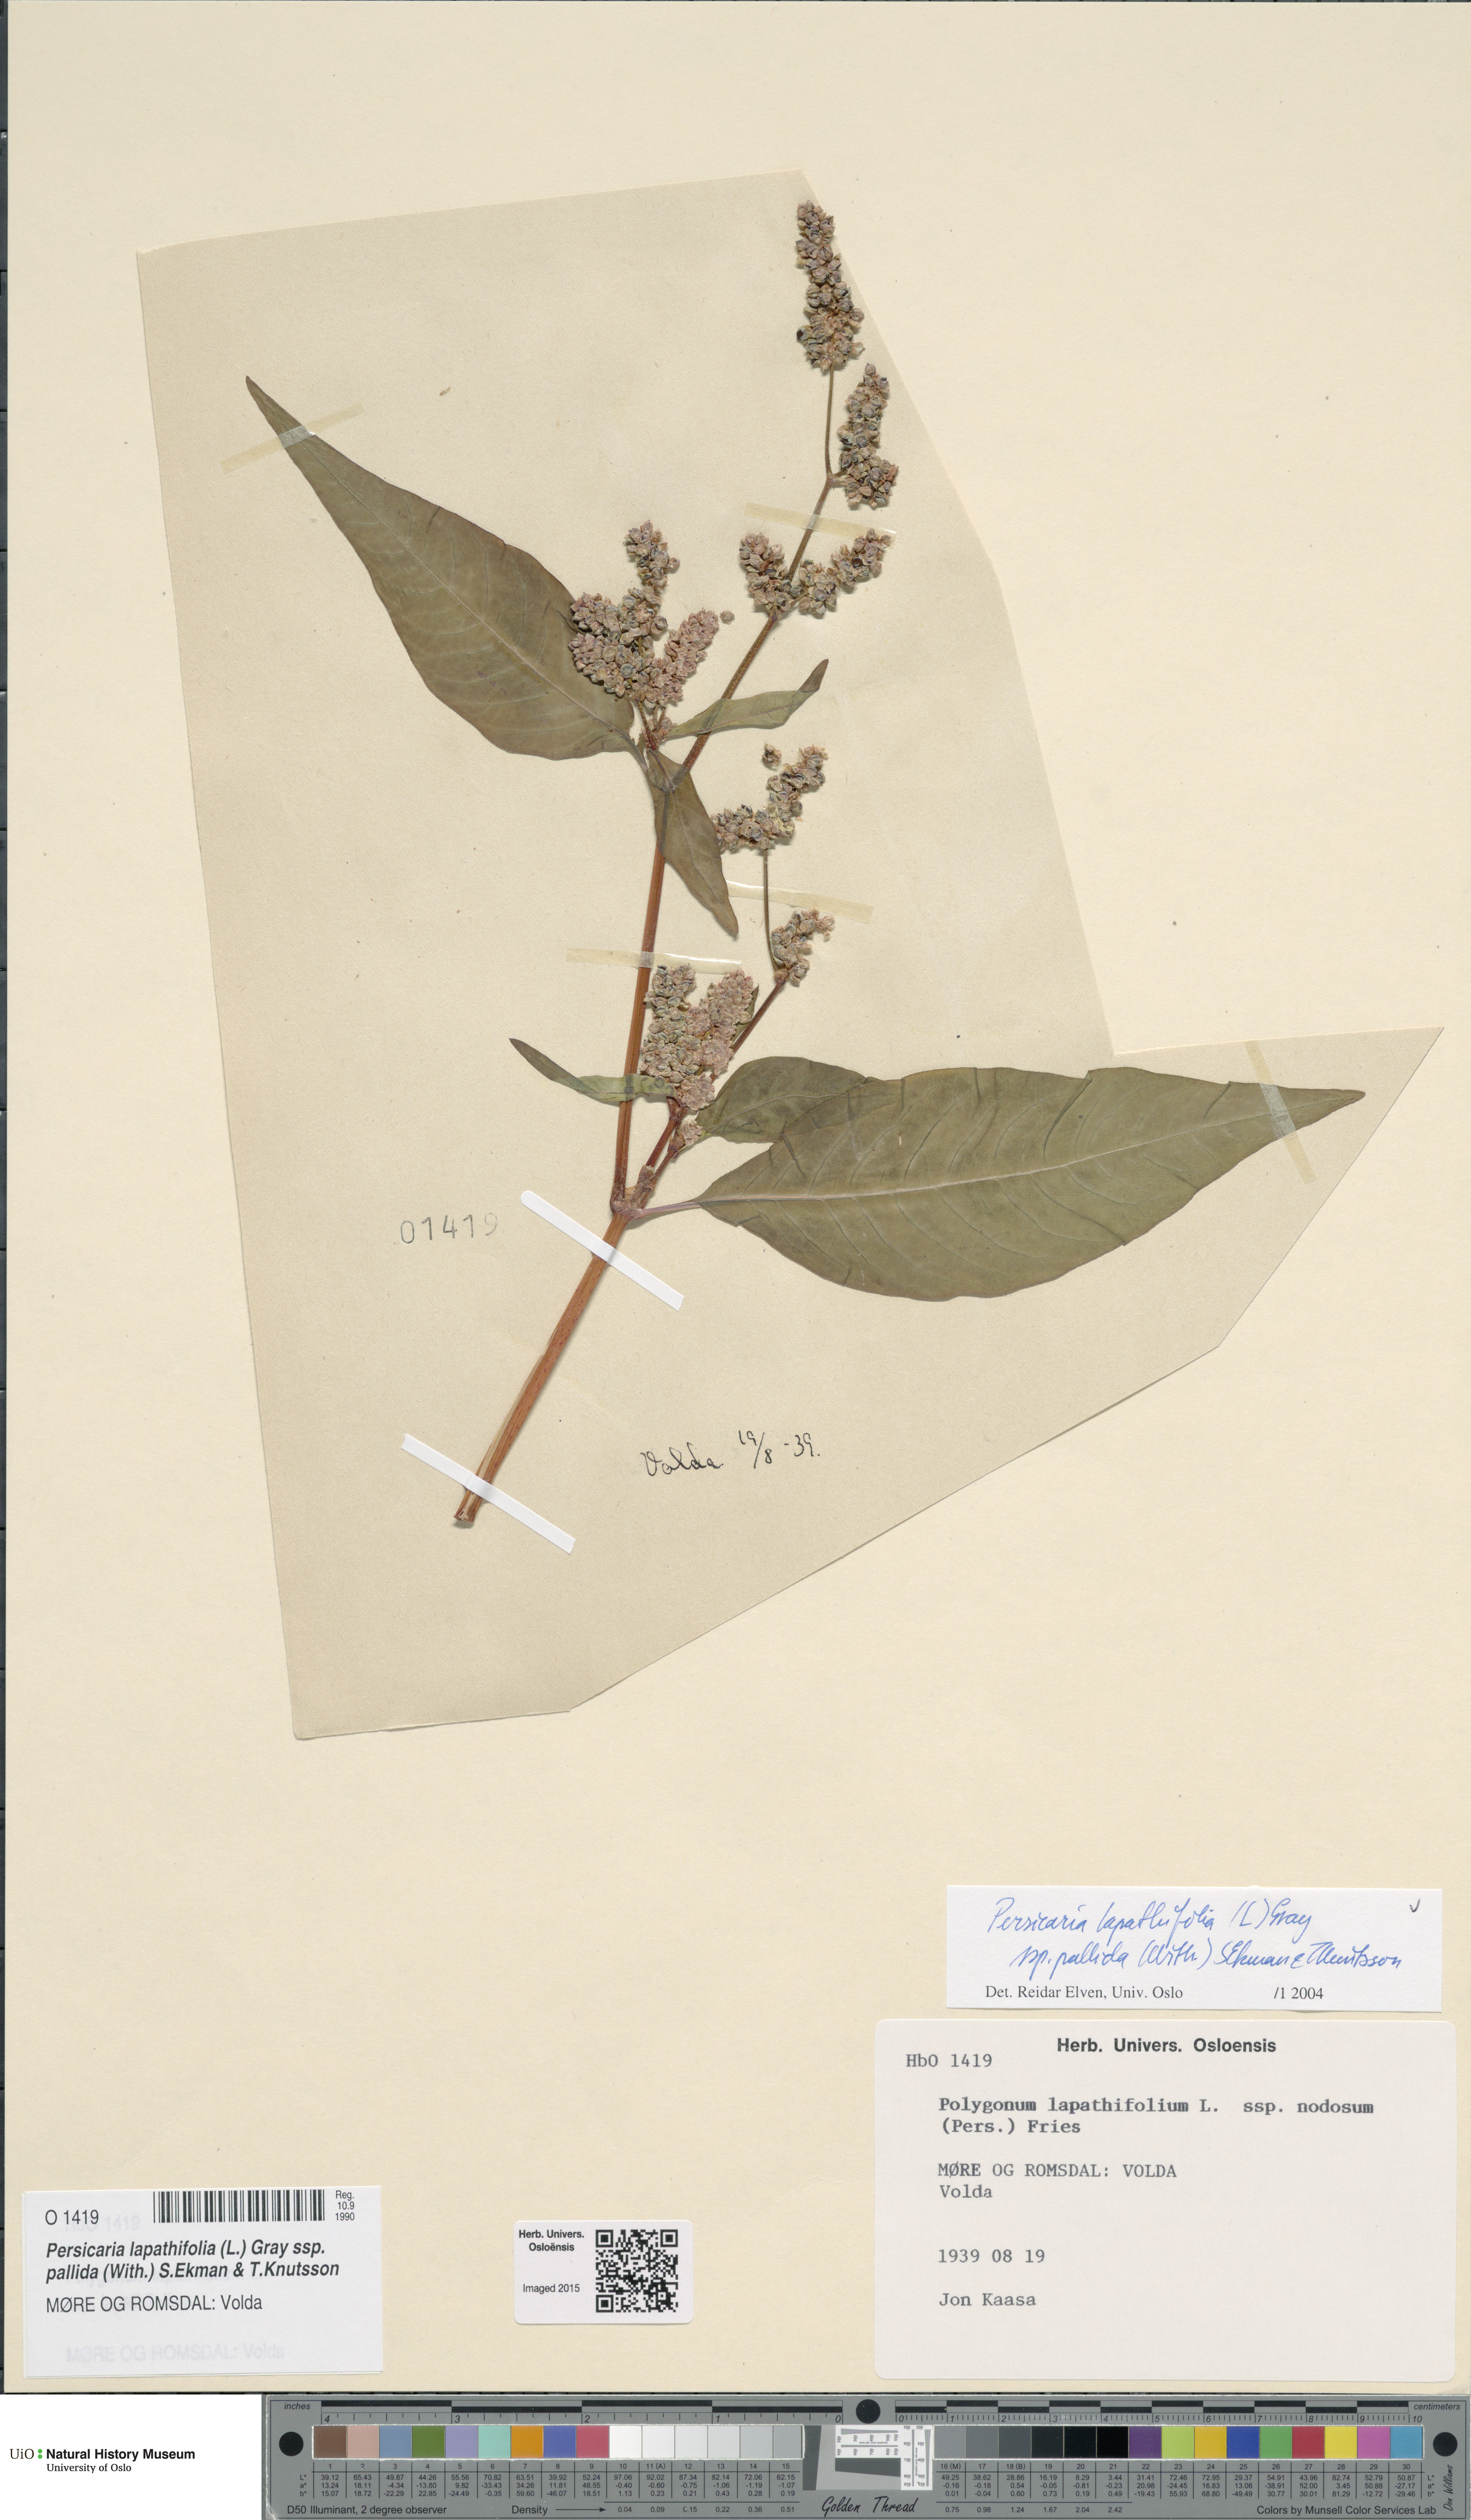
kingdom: Plantae
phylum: Tracheophyta
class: Magnoliopsida
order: Caryophyllales
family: Polygonaceae
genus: Persicaria
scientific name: Persicaria lapathifolia
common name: Curlytop knotweed
